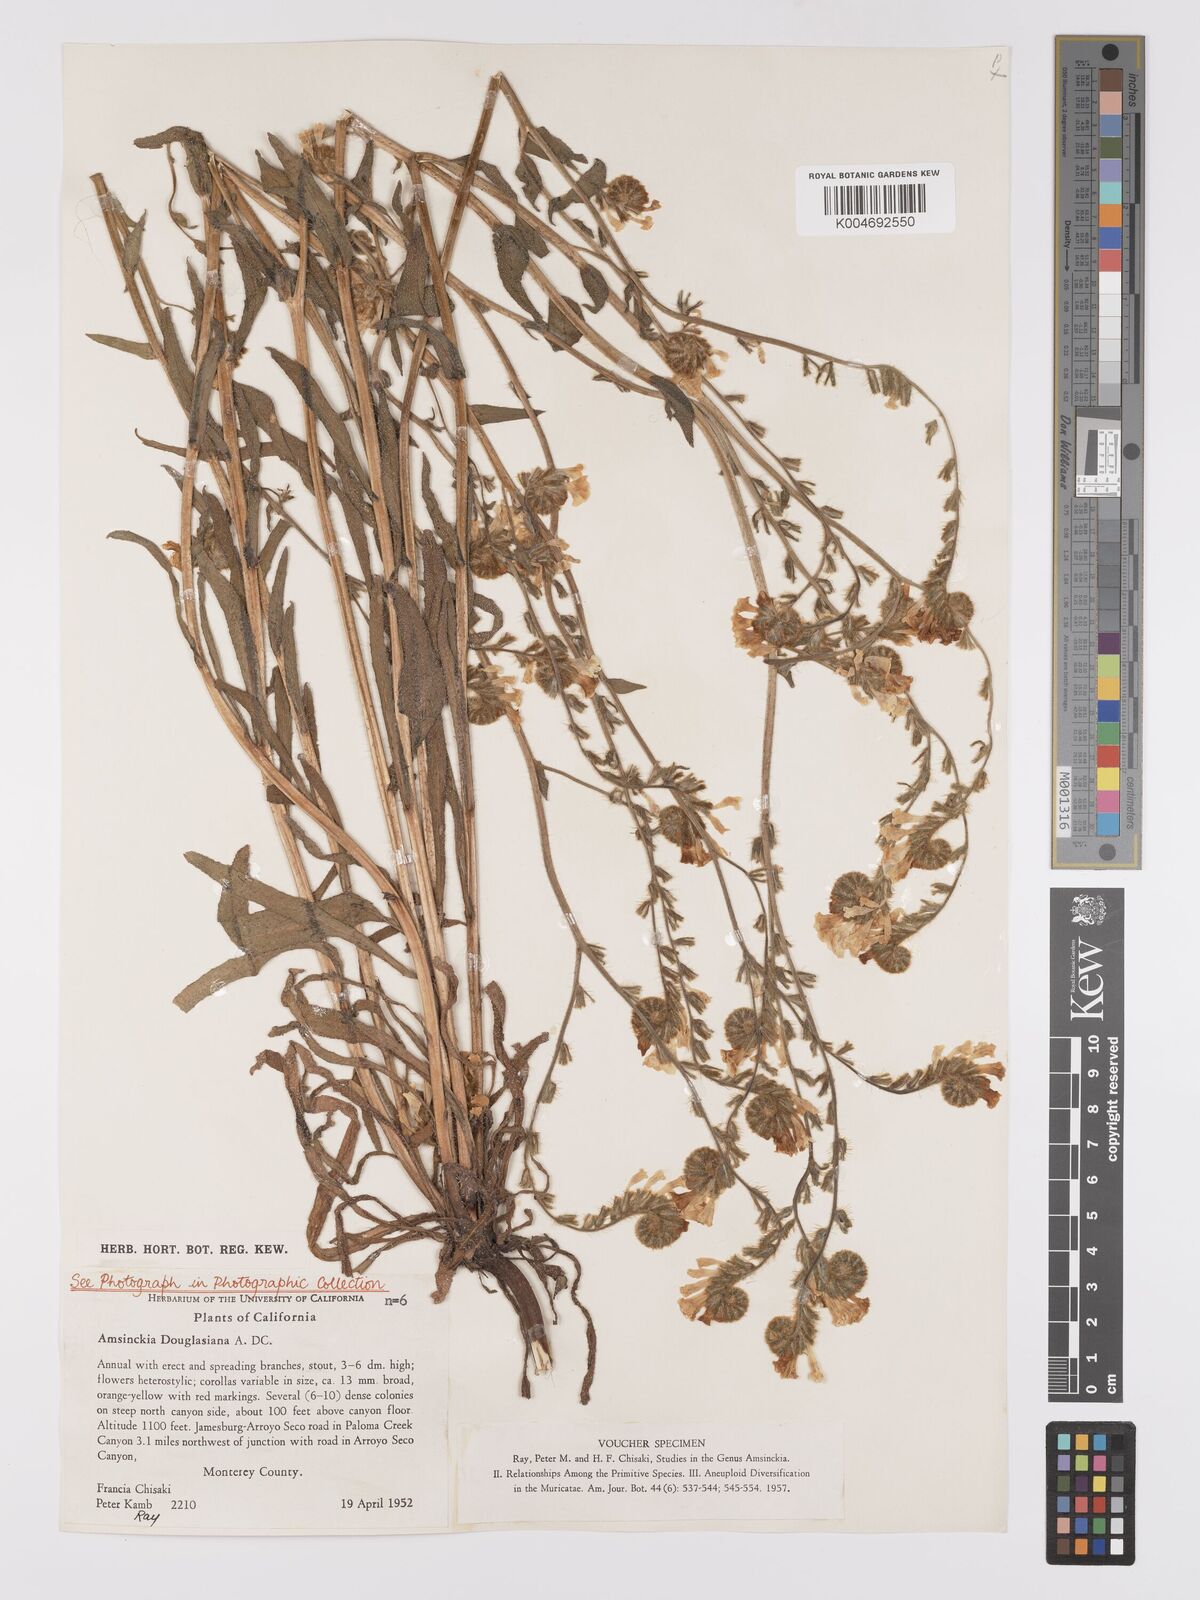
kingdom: Plantae
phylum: Tracheophyta
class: Magnoliopsida
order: Boraginales
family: Boraginaceae
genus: Amsinckia
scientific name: Amsinckia douglasiana
